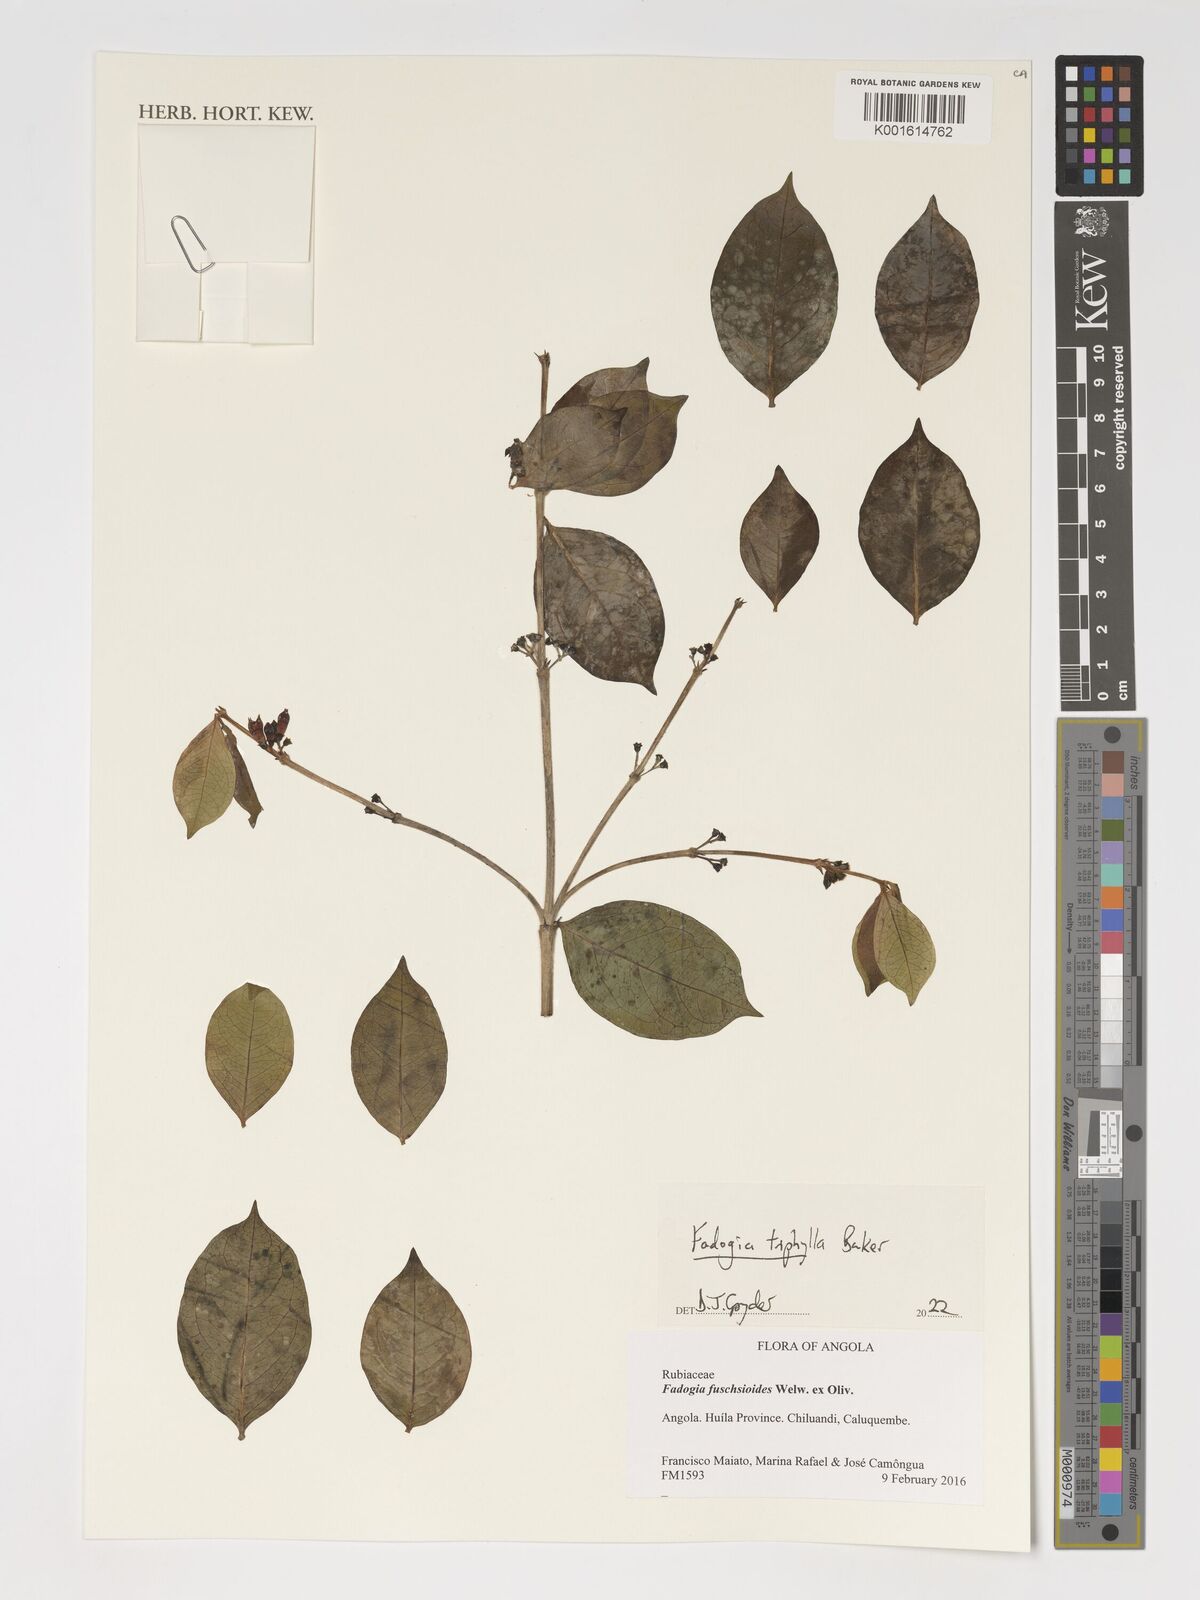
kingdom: Plantae
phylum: Tracheophyta
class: Magnoliopsida
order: Gentianales
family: Rubiaceae
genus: Fadogia
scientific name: Fadogia triphylla
